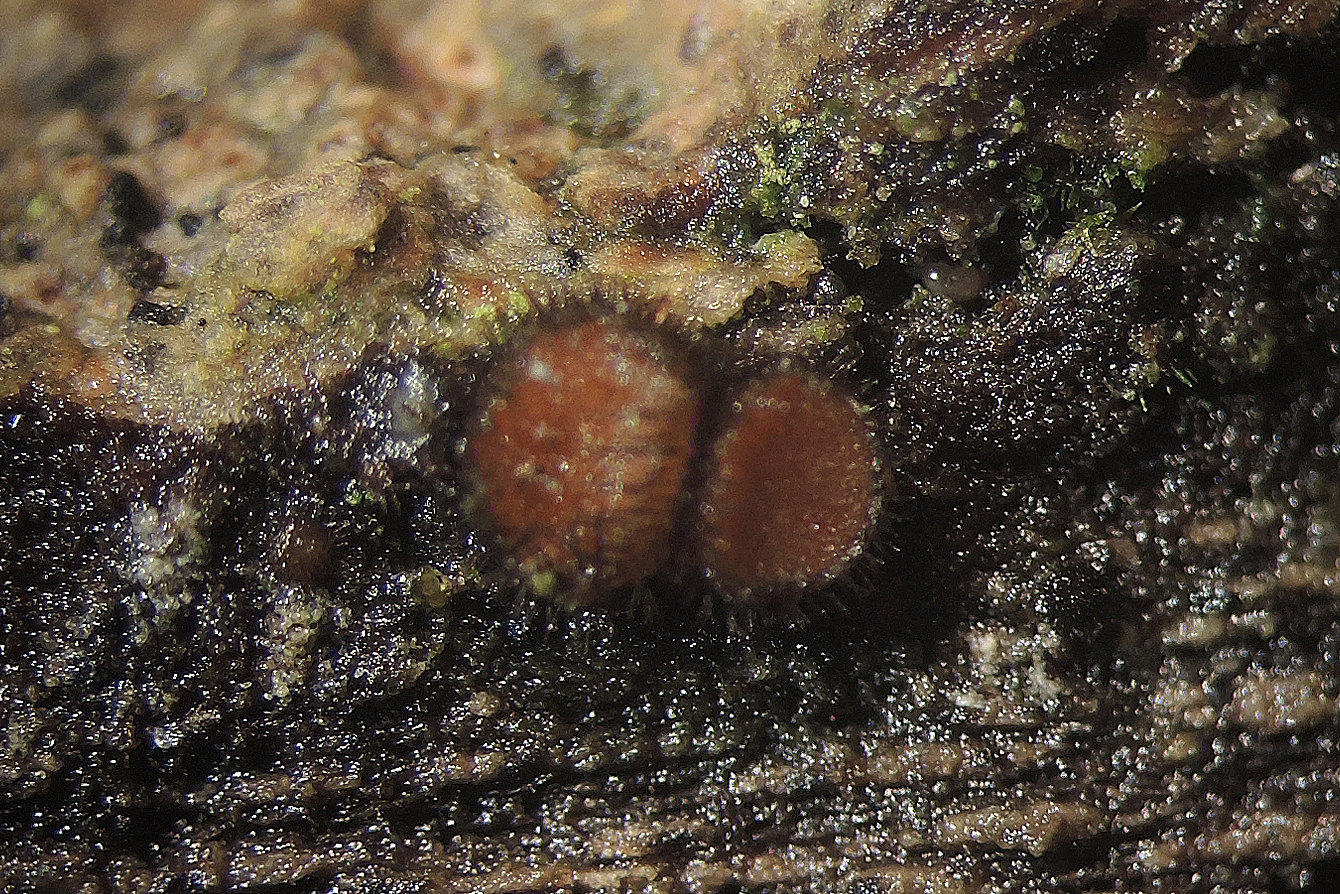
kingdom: Fungi
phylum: Ascomycota
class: Pezizomycetes
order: Pezizales
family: Pyronemataceae
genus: Scutellinia
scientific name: Scutellinia setosa
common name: pindsvine-skjoldbæger
